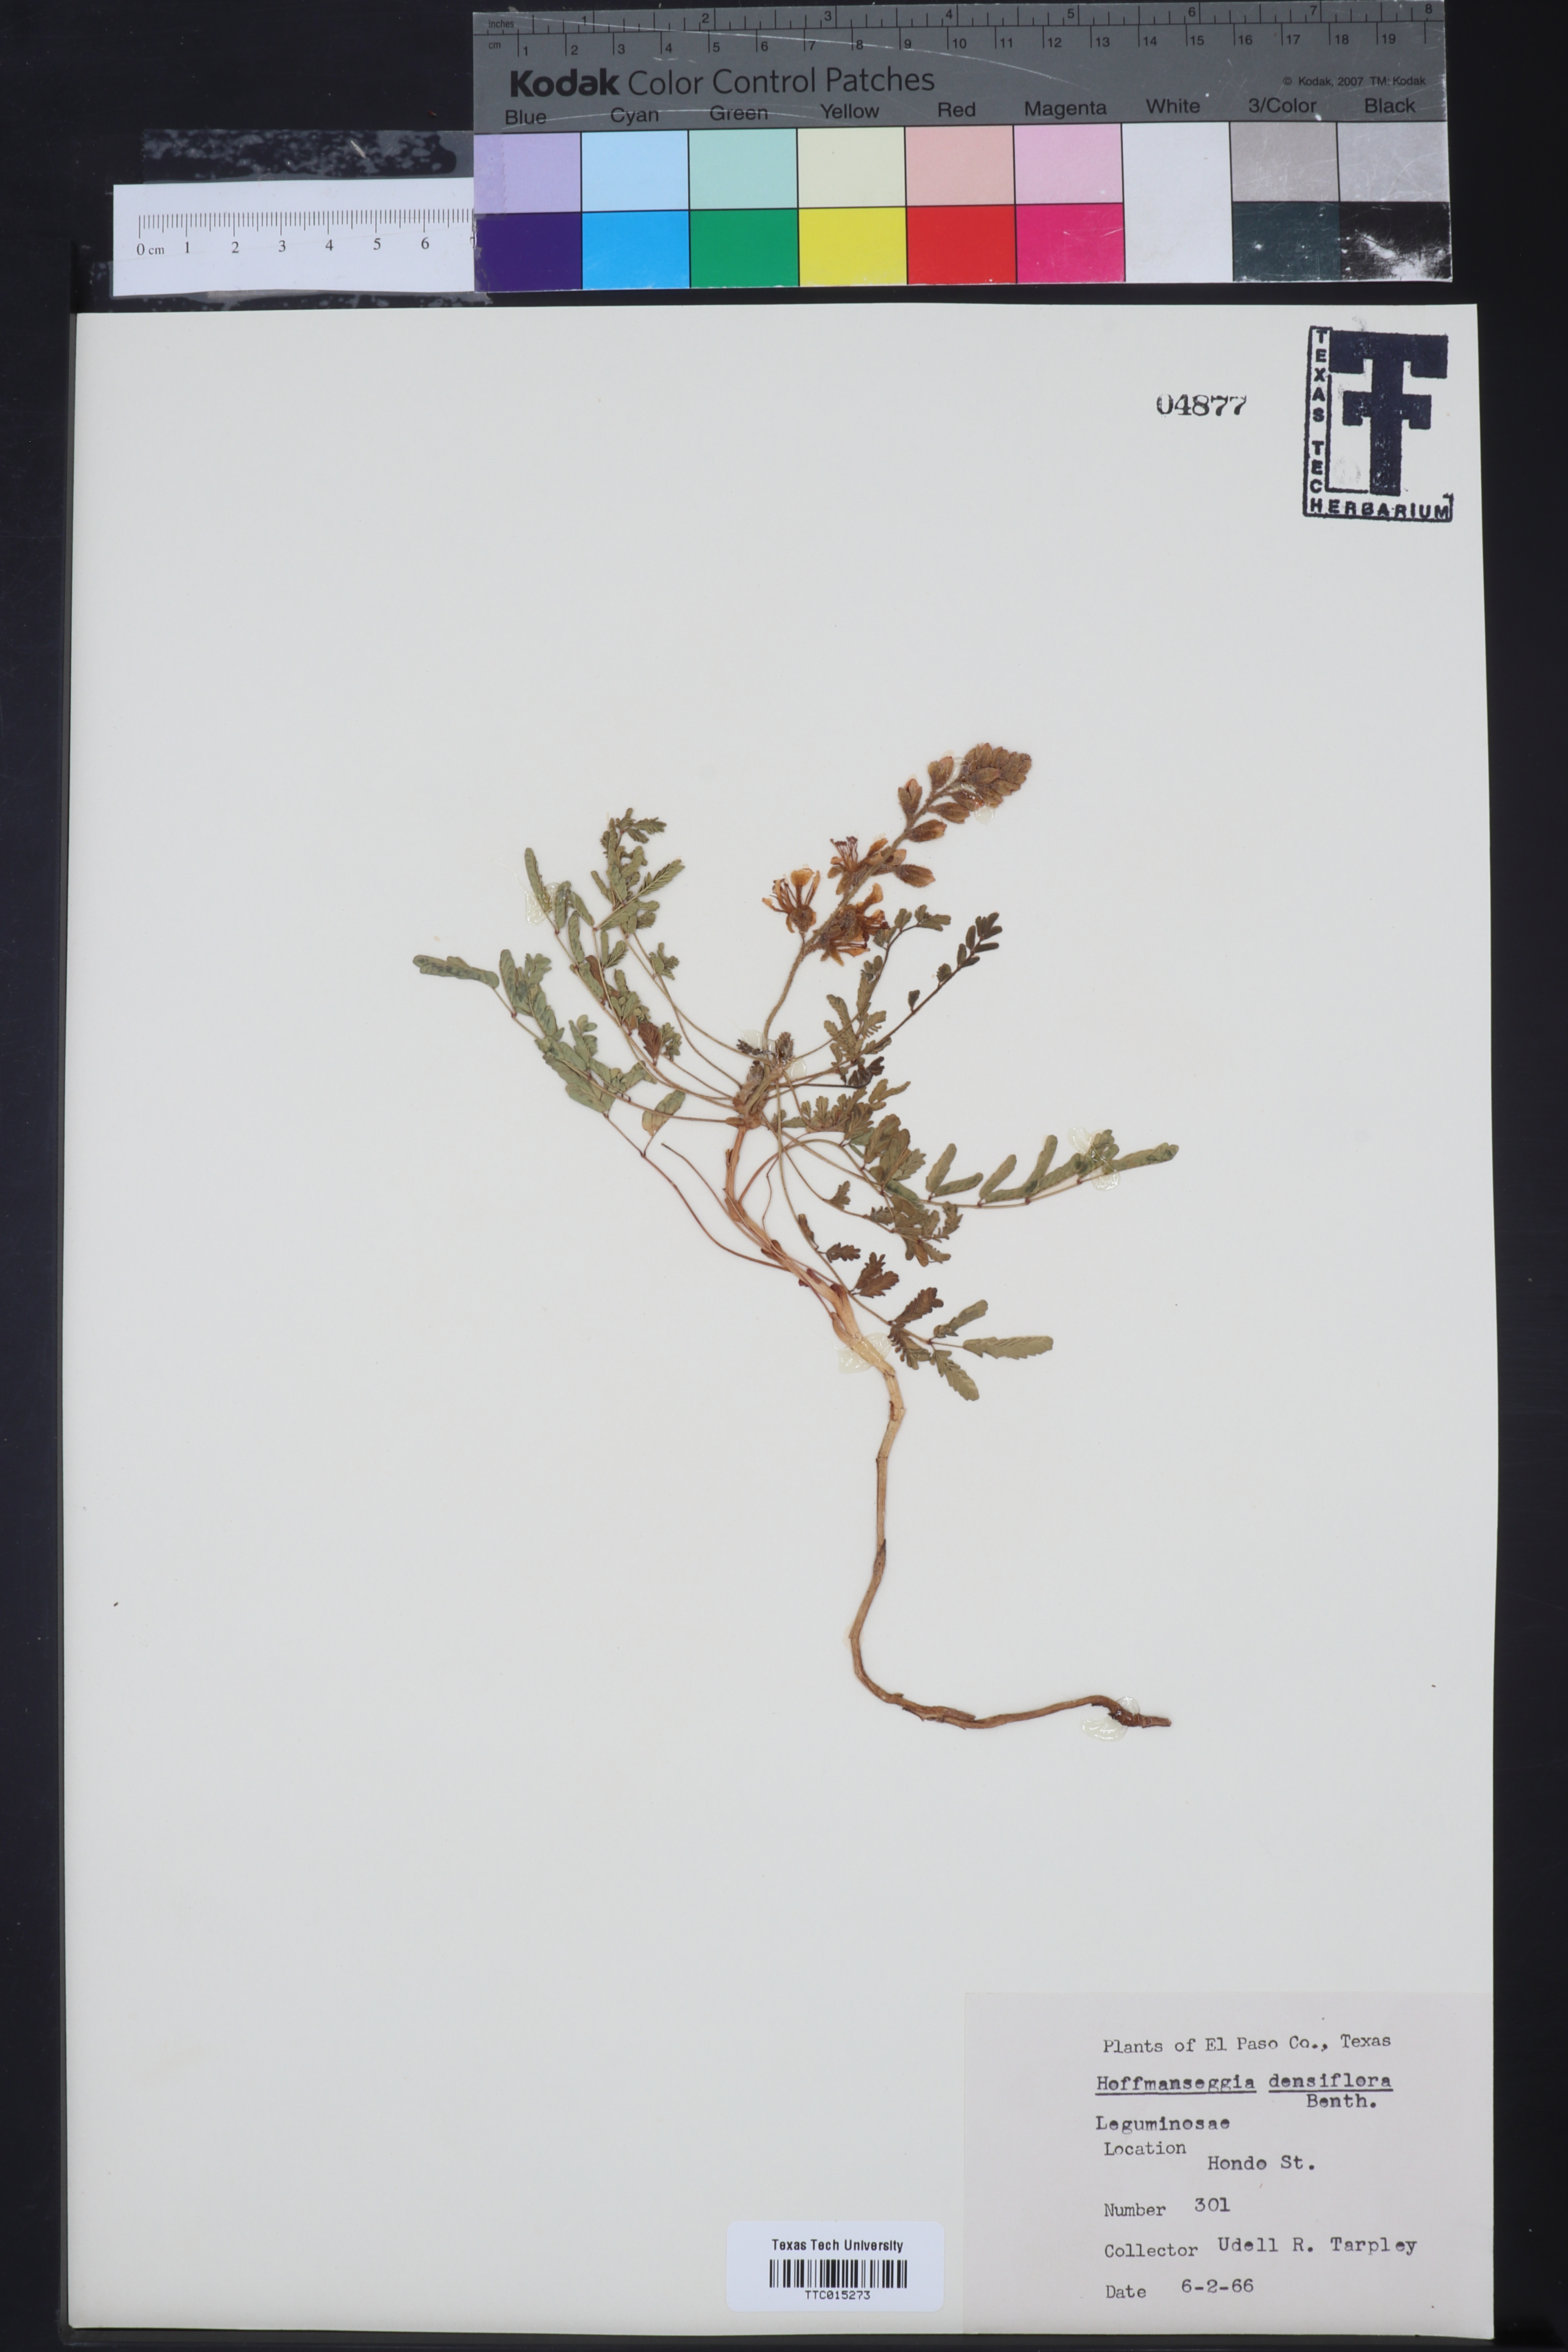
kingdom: Plantae
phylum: Tracheophyta
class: Magnoliopsida
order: Fabales
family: Fabaceae
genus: Hoffmannseggia
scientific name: Hoffmannseggia glauca
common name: Pignut
